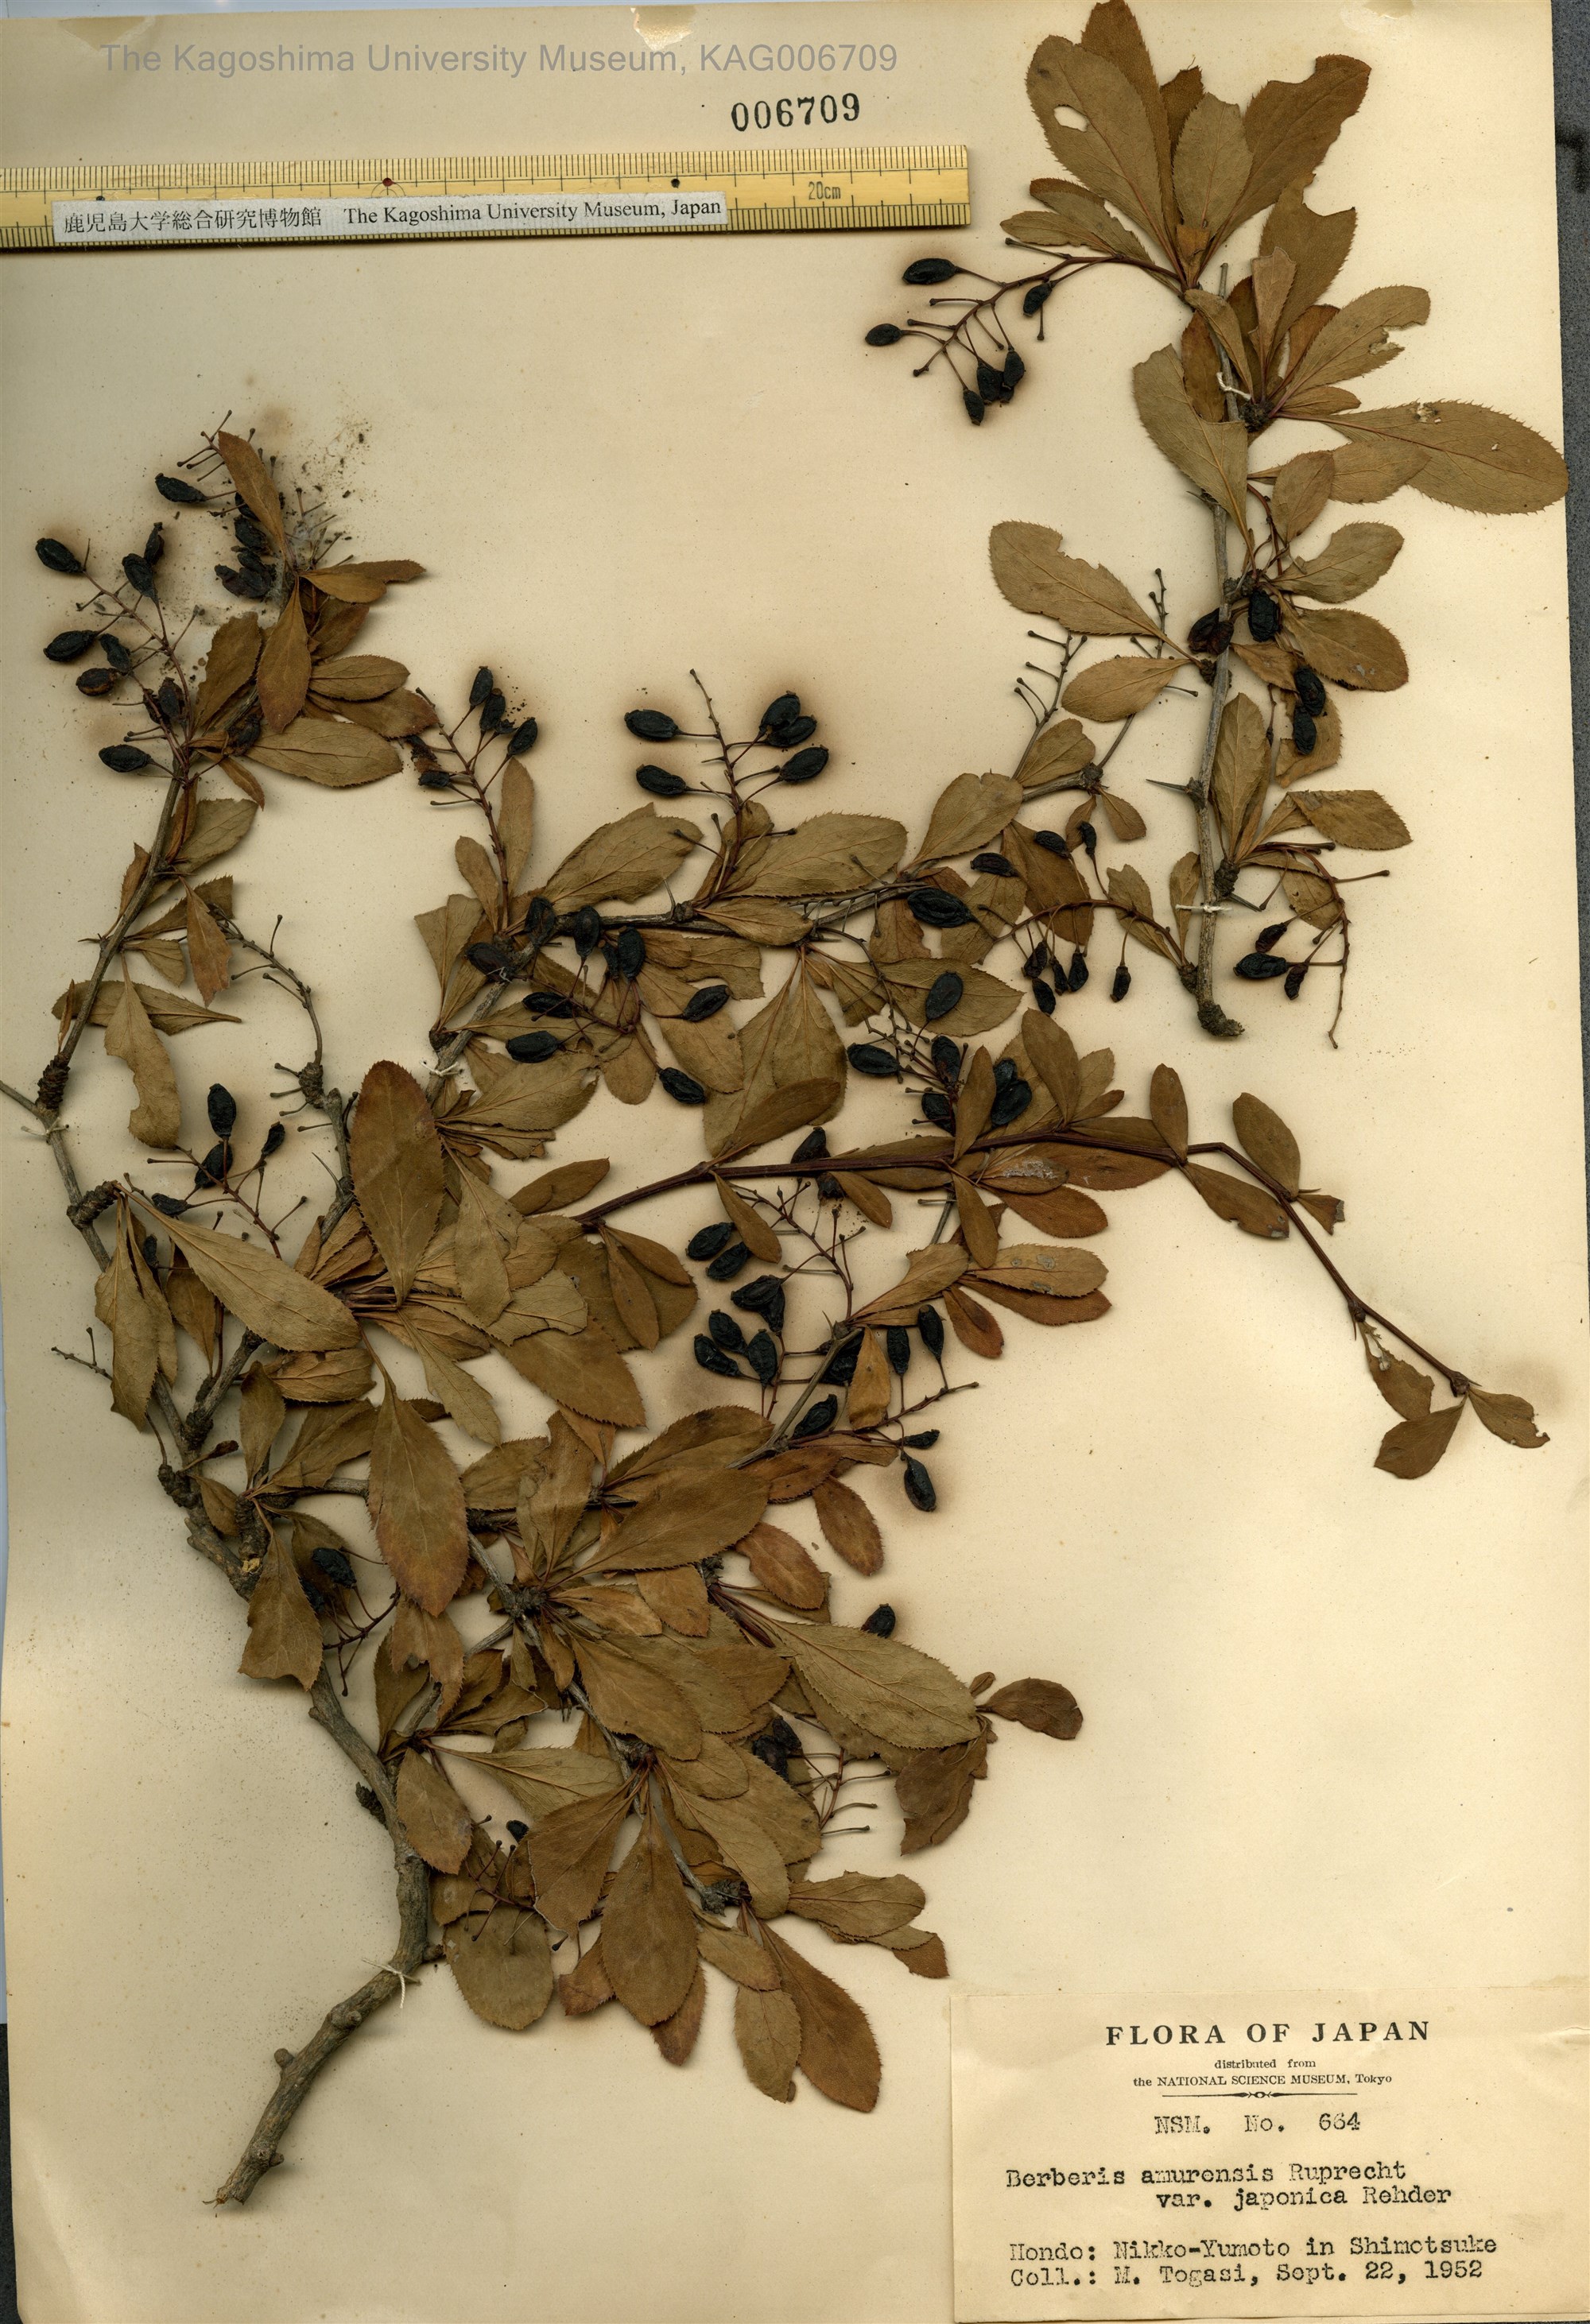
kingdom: Plantae
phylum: Tracheophyta
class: Magnoliopsida
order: Ranunculales
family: Berberidaceae
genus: Berberis
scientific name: Berberis amurensis
